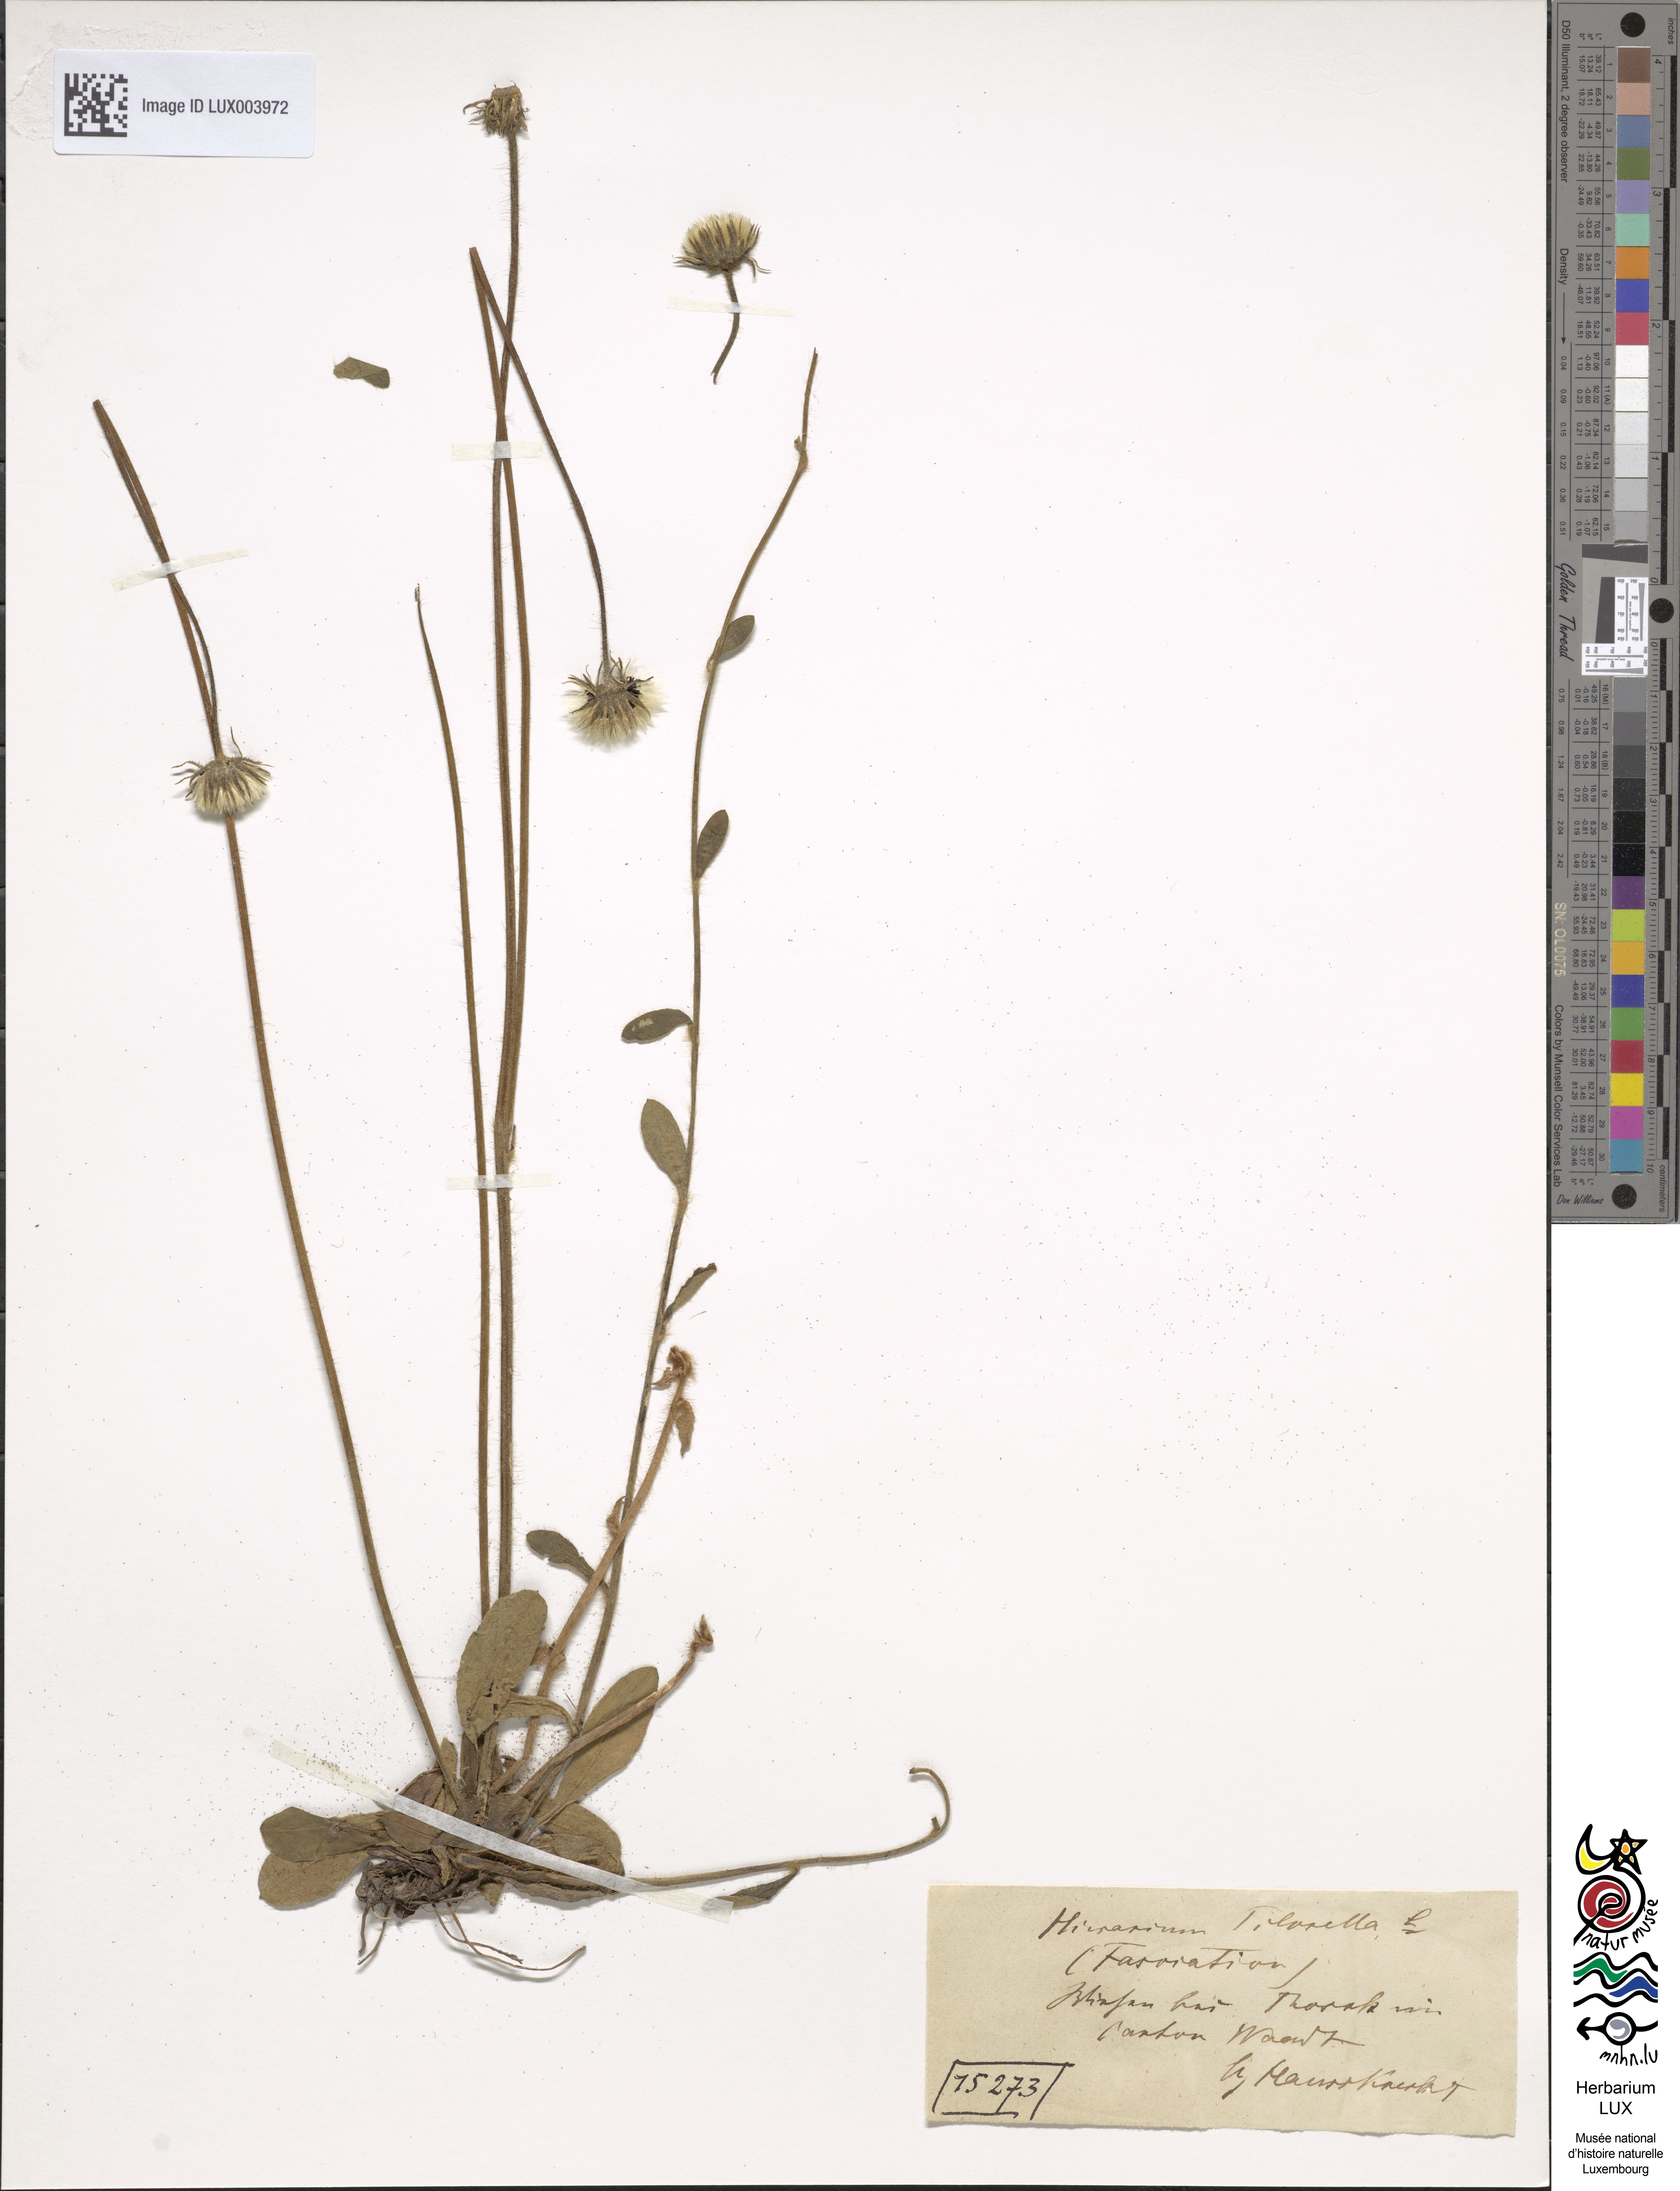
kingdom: Plantae
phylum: Tracheophyta
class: Magnoliopsida
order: Asterales
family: Asteraceae
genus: Pilosella
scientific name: Pilosella officinarum
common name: Mouse-ear hawkweed
